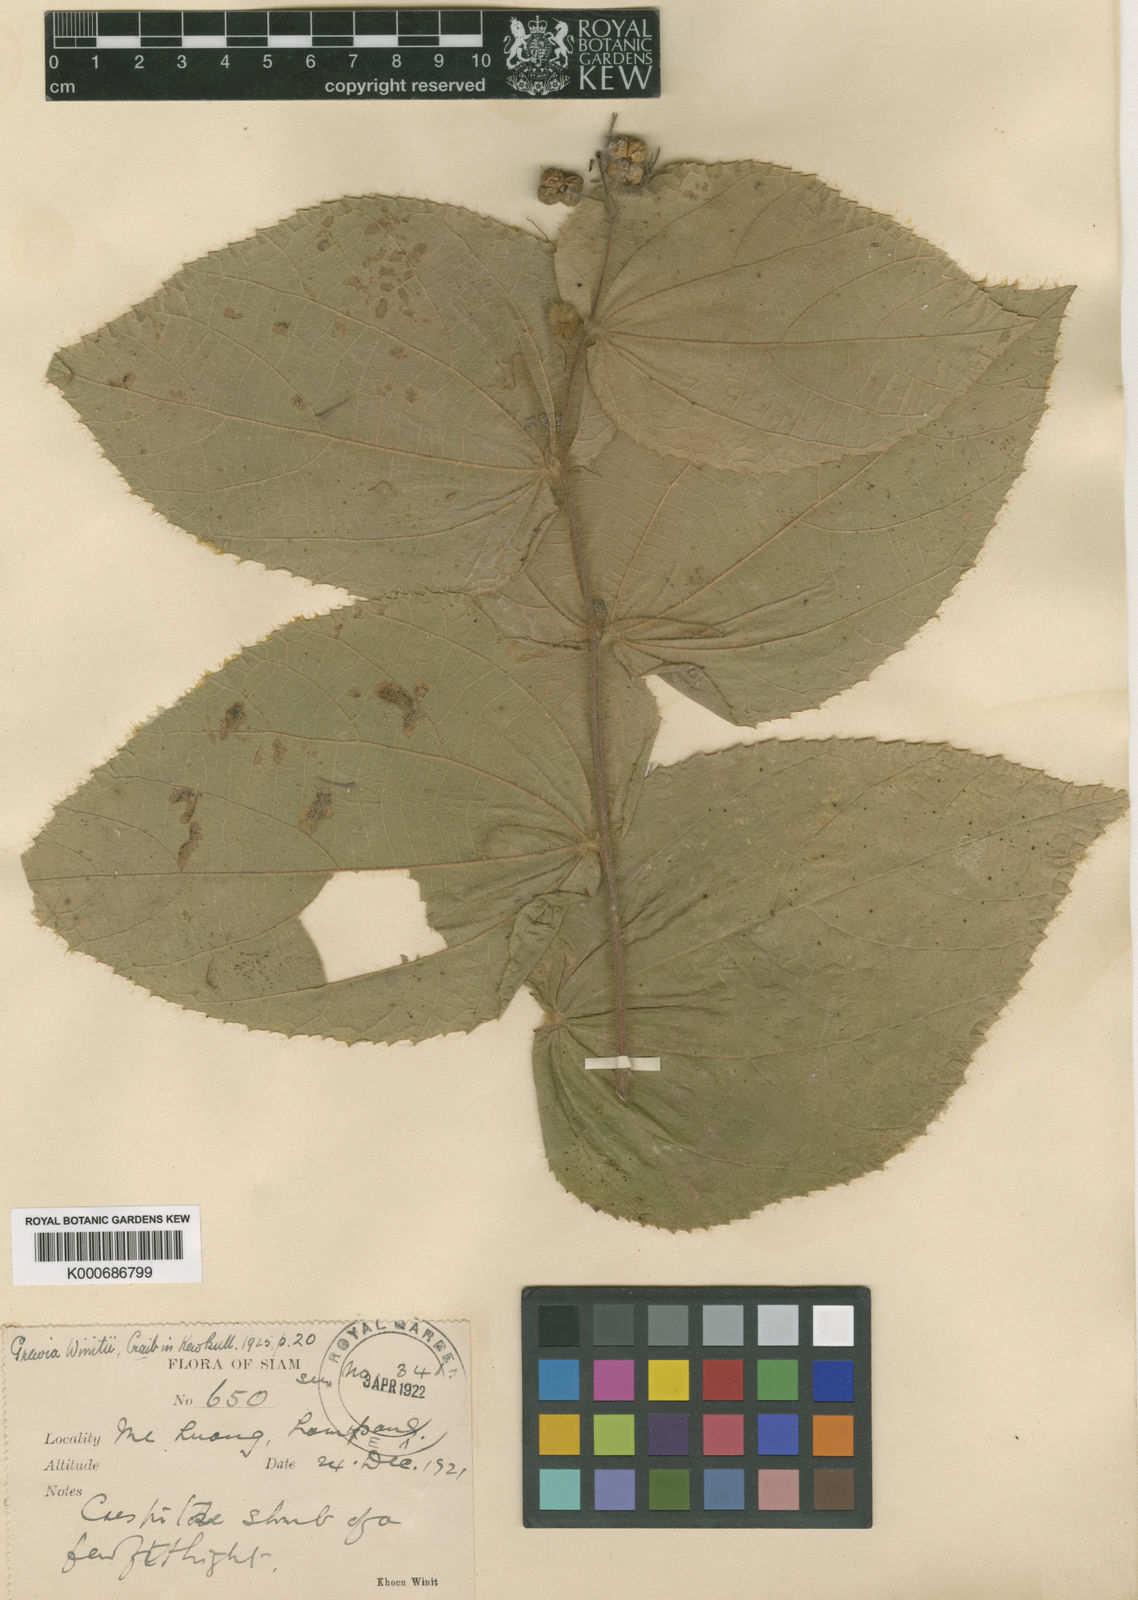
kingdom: Plantae
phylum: Tracheophyta
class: Magnoliopsida
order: Malvales
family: Malvaceae
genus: Grewia
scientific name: Grewia winitii
